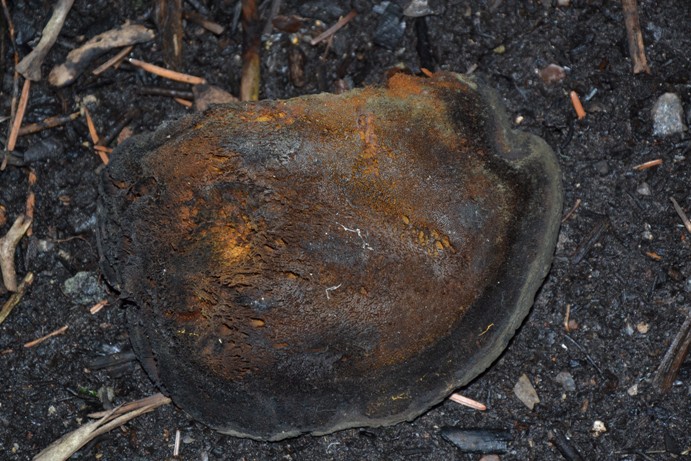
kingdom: Fungi
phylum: Basidiomycota
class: Agaricomycetes
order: Hymenochaetales
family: Hymenochaetaceae
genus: Inonotus
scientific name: Inonotus hispidus
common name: børstehåret spejlporesvamp
